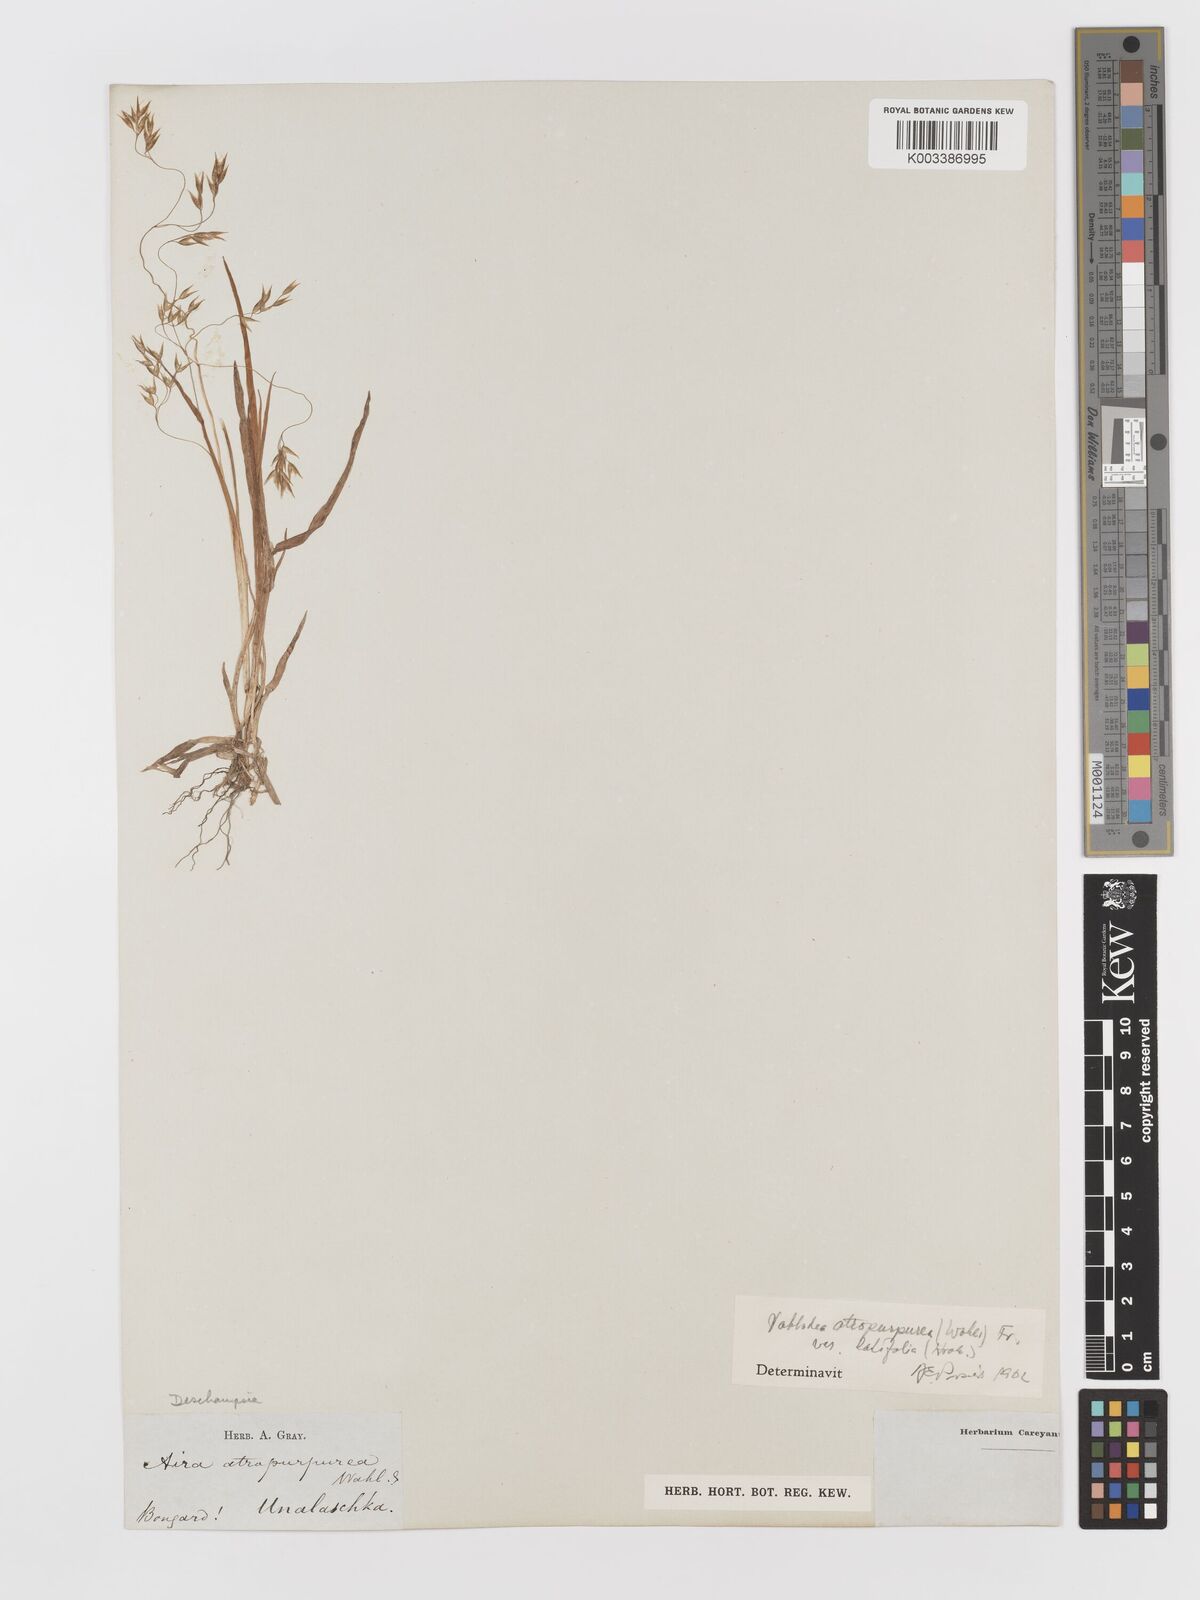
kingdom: Plantae
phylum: Tracheophyta
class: Liliopsida
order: Poales
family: Poaceae
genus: Vahlodea
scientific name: Vahlodea atropurpurea
